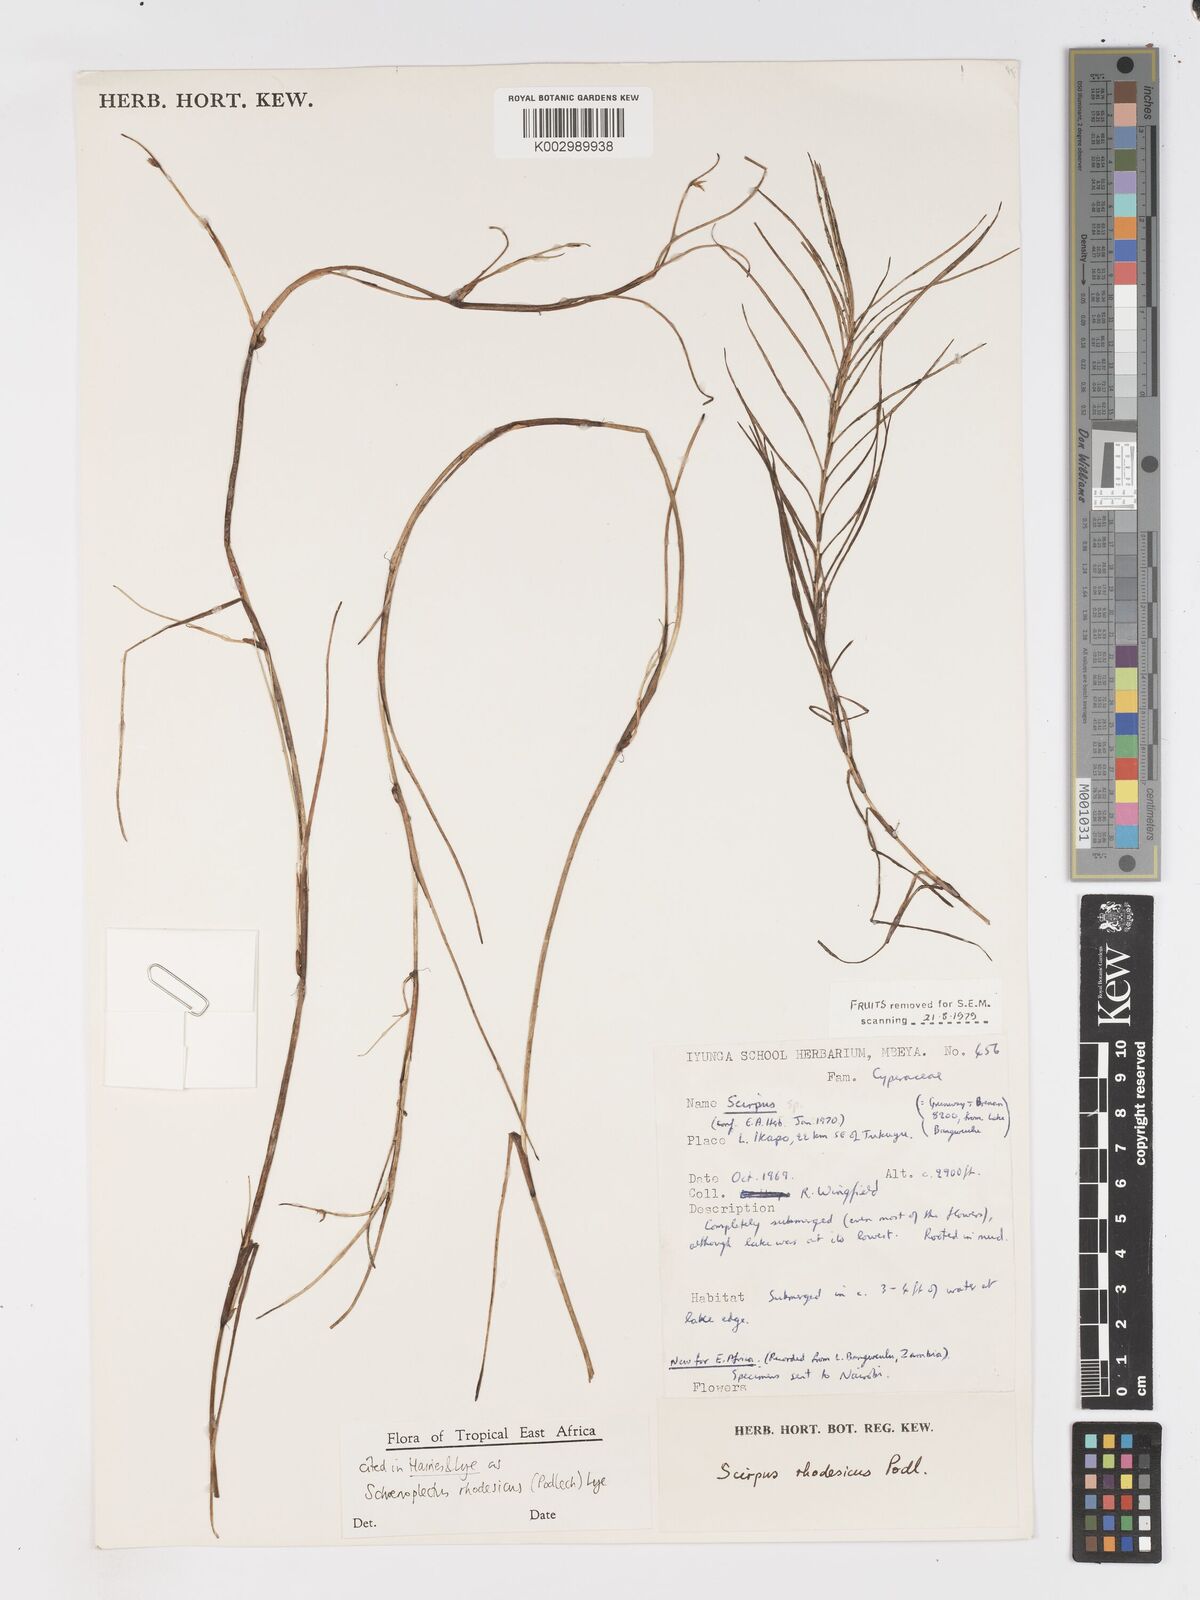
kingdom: Plantae
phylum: Tracheophyta
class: Liliopsida
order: Poales
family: Cyperaceae
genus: Schoenoplectiella
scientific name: Schoenoplectiella rhodesica
